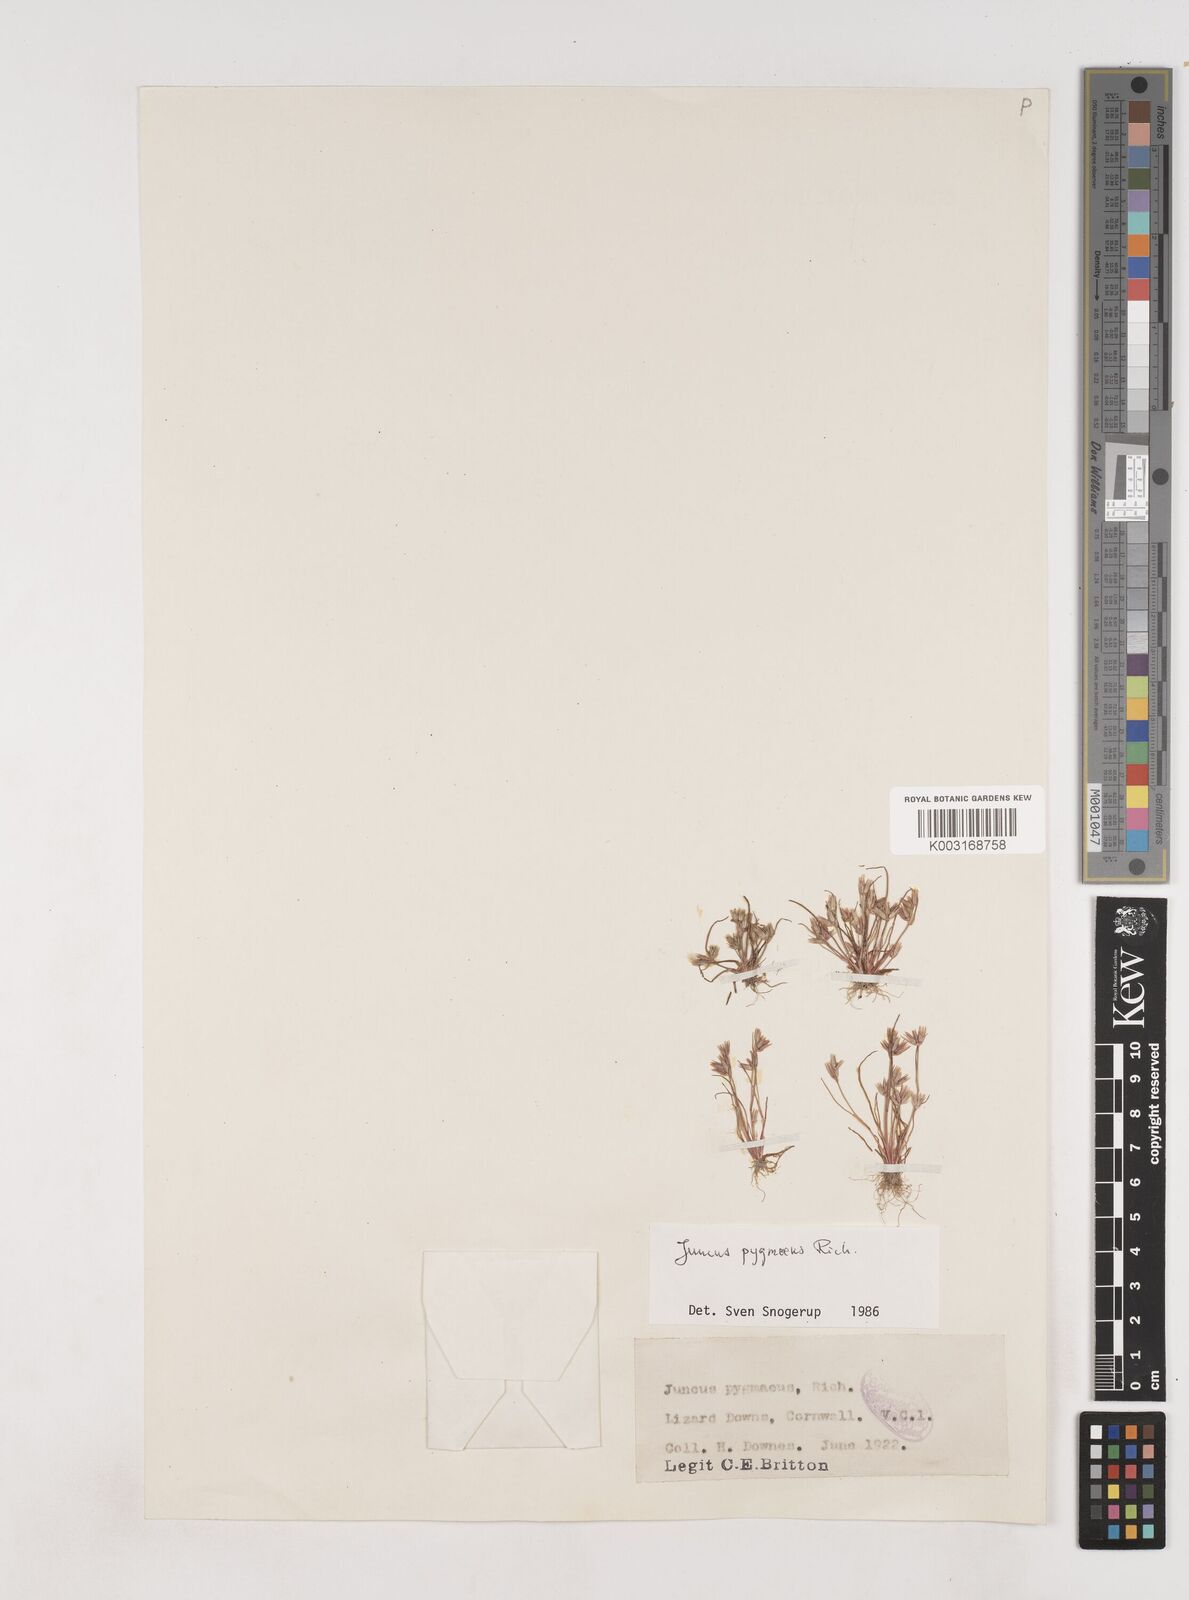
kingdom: Plantae
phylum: Tracheophyta
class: Liliopsida
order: Poales
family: Juncaceae
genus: Juncus
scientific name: Juncus pygmaeus
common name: Pigmy rush
